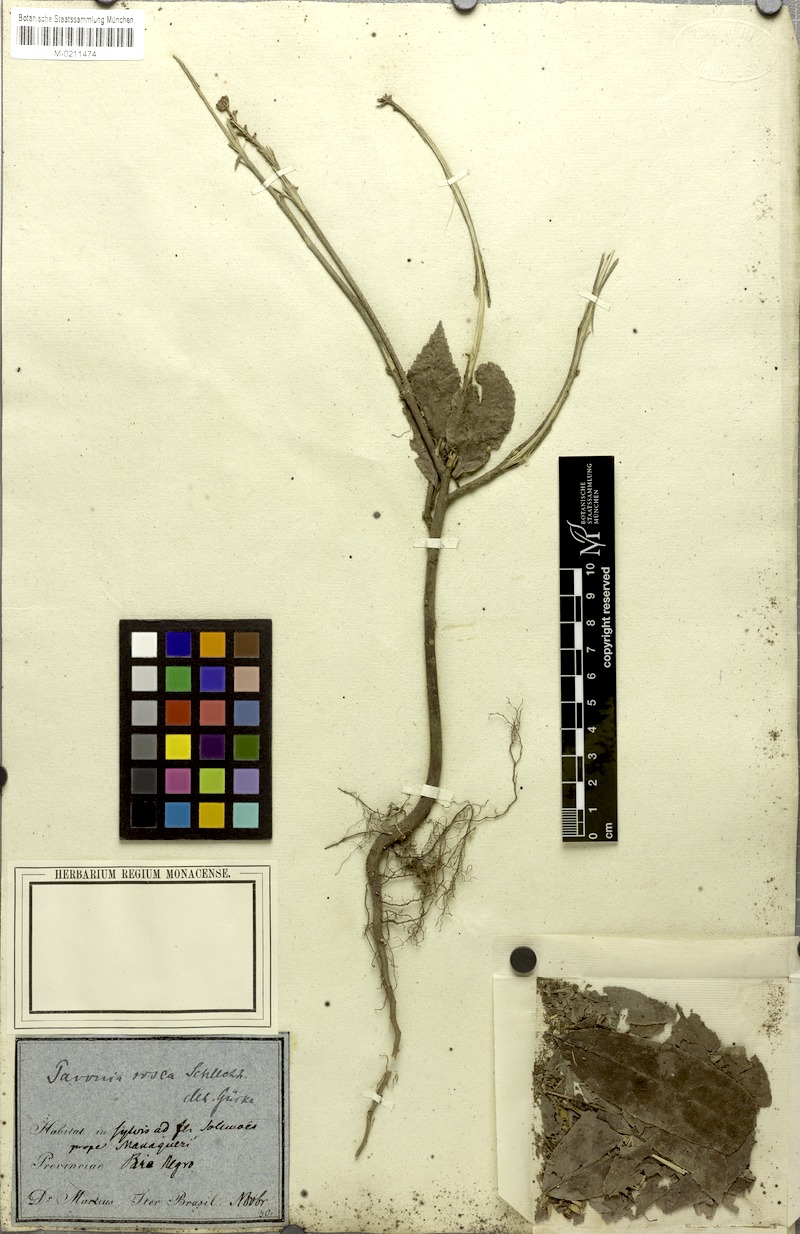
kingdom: Plantae
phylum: Tracheophyta
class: Magnoliopsida
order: Malvales
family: Malvaceae
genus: Pavonia
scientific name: Pavonia schiedeana
